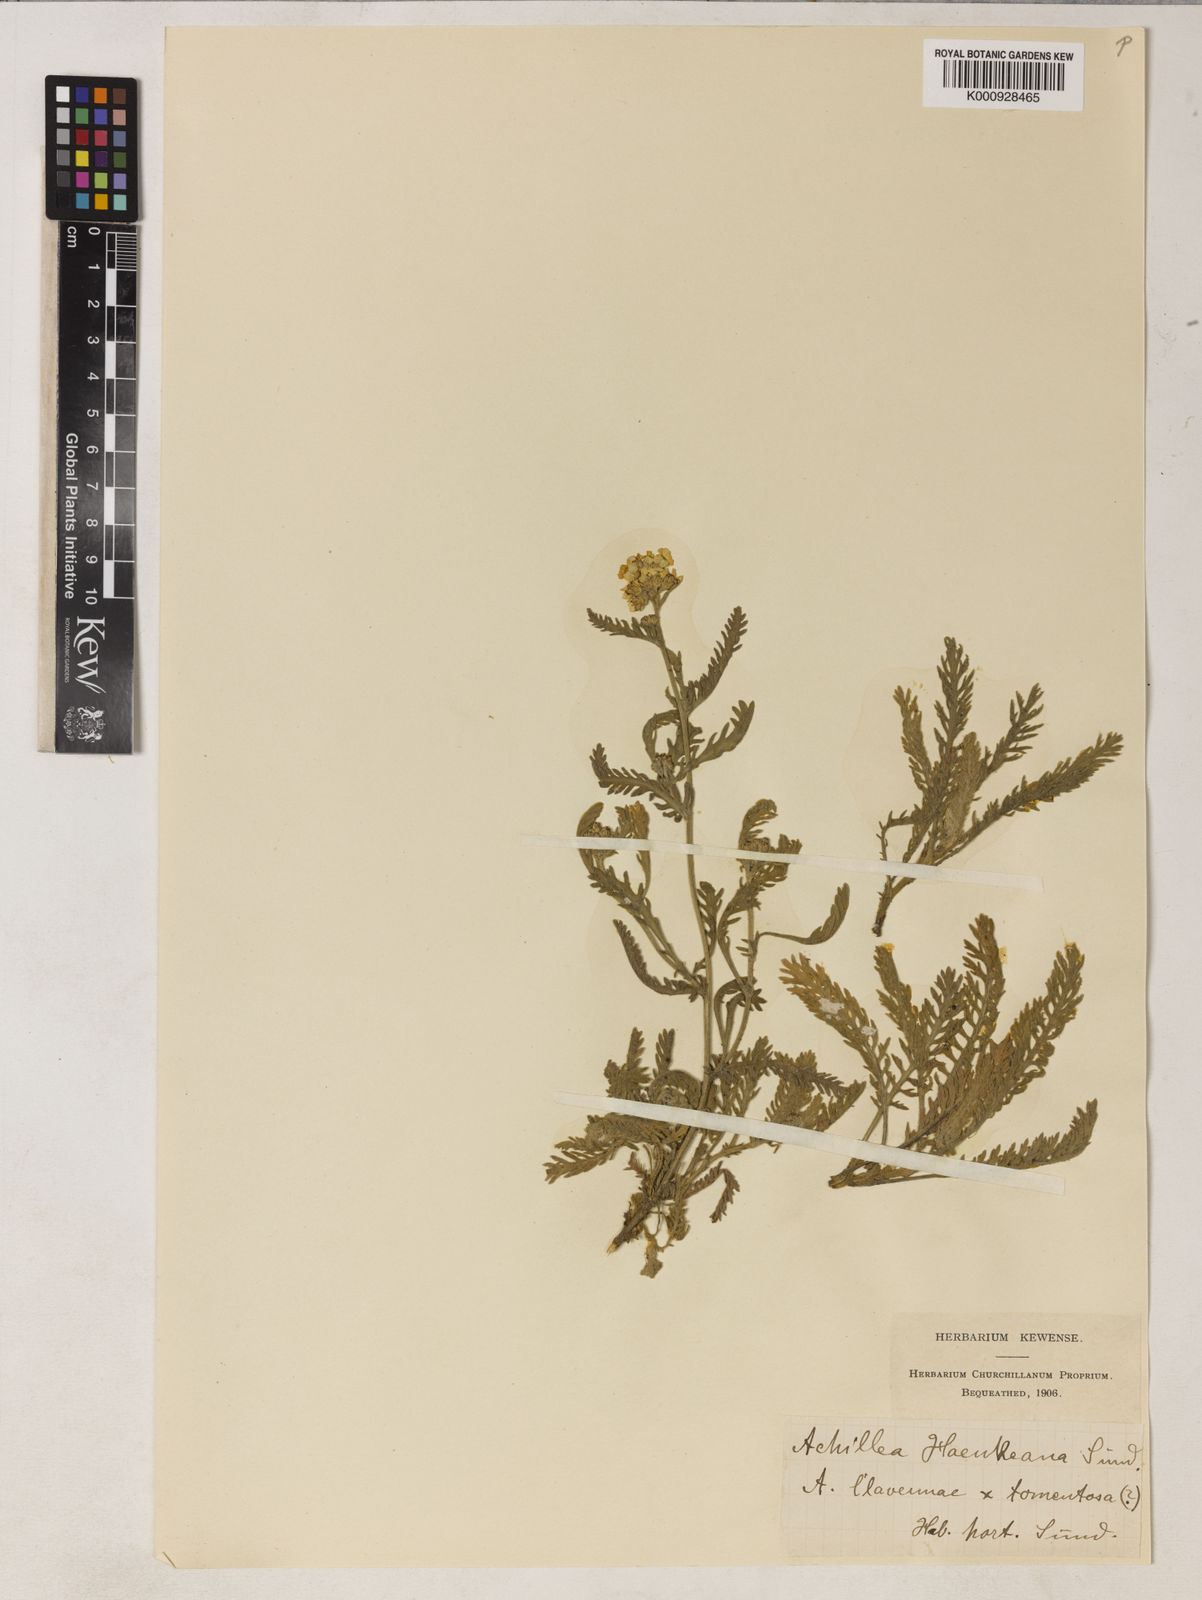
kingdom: Plantae
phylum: Tracheophyta
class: Magnoliopsida
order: Asterales
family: Asteraceae
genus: Achillea
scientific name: Achillea clavennae
